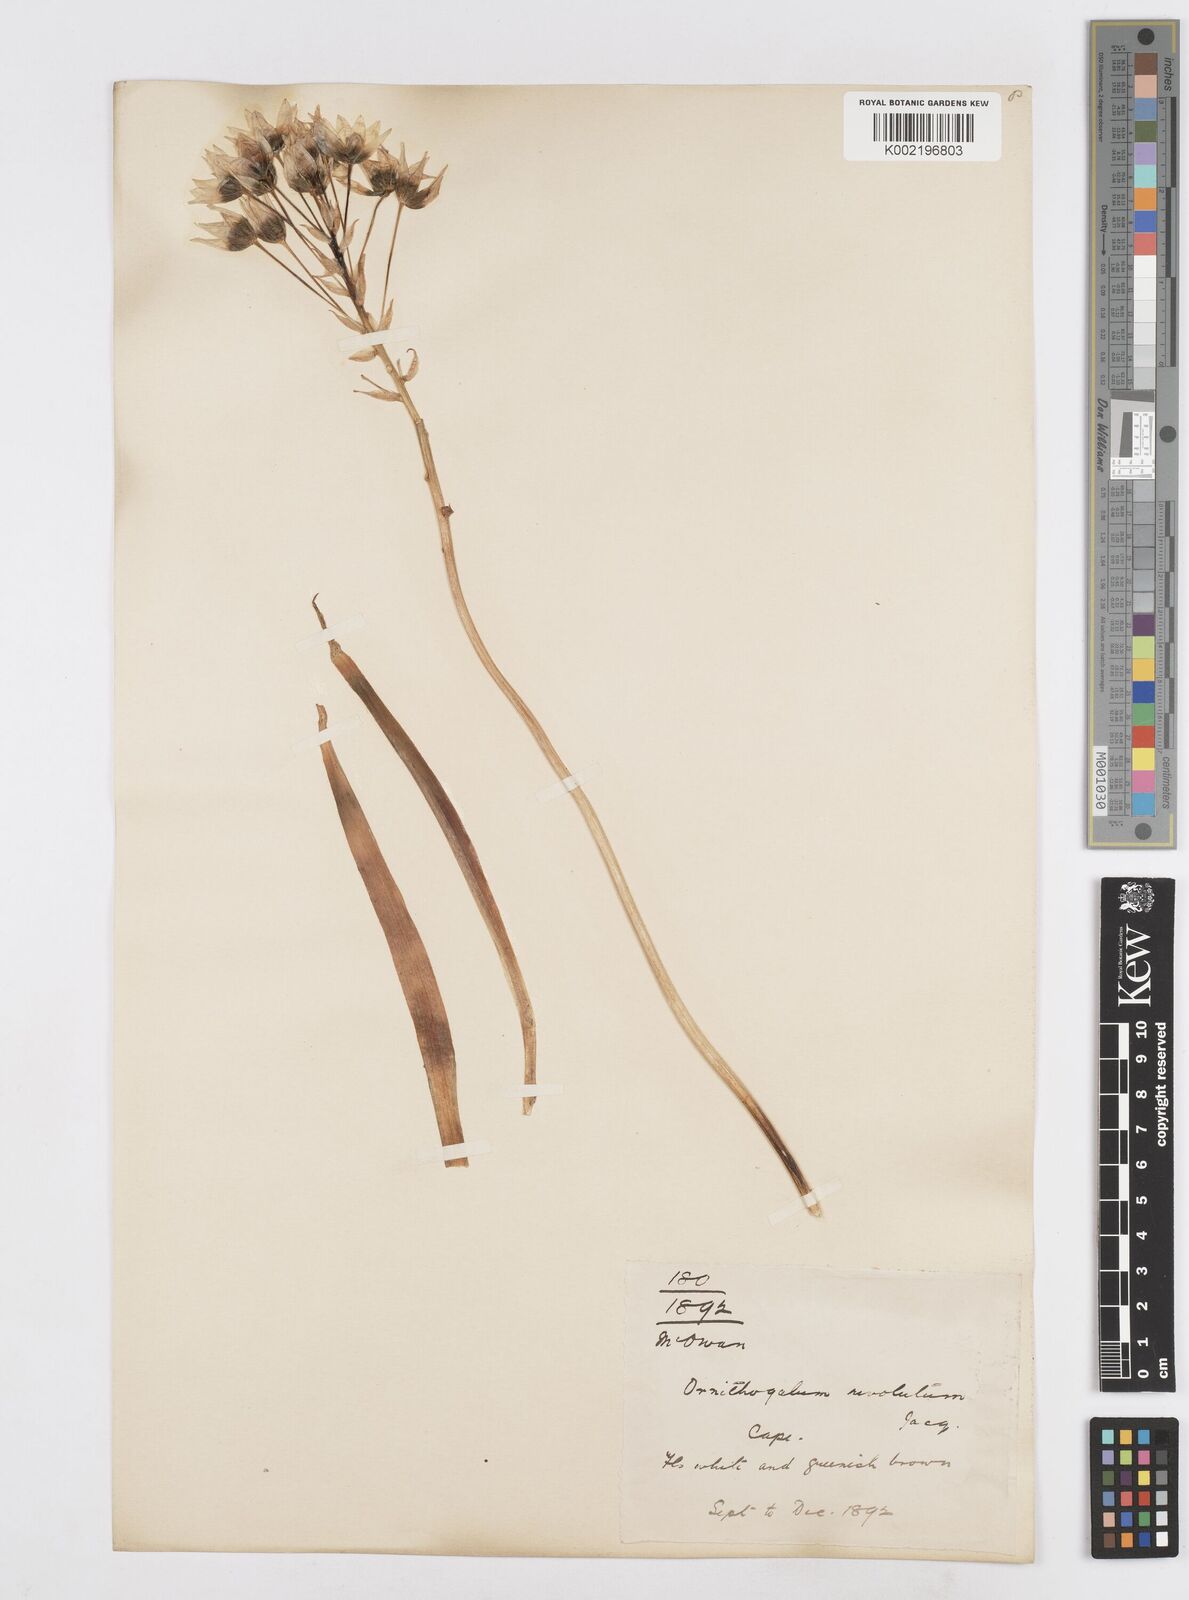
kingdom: Plantae
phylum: Tracheophyta
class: Liliopsida
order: Asparagales
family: Asparagaceae
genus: Ornithogalum
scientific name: Ornithogalum thyrsoides
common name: Chincherinchee
